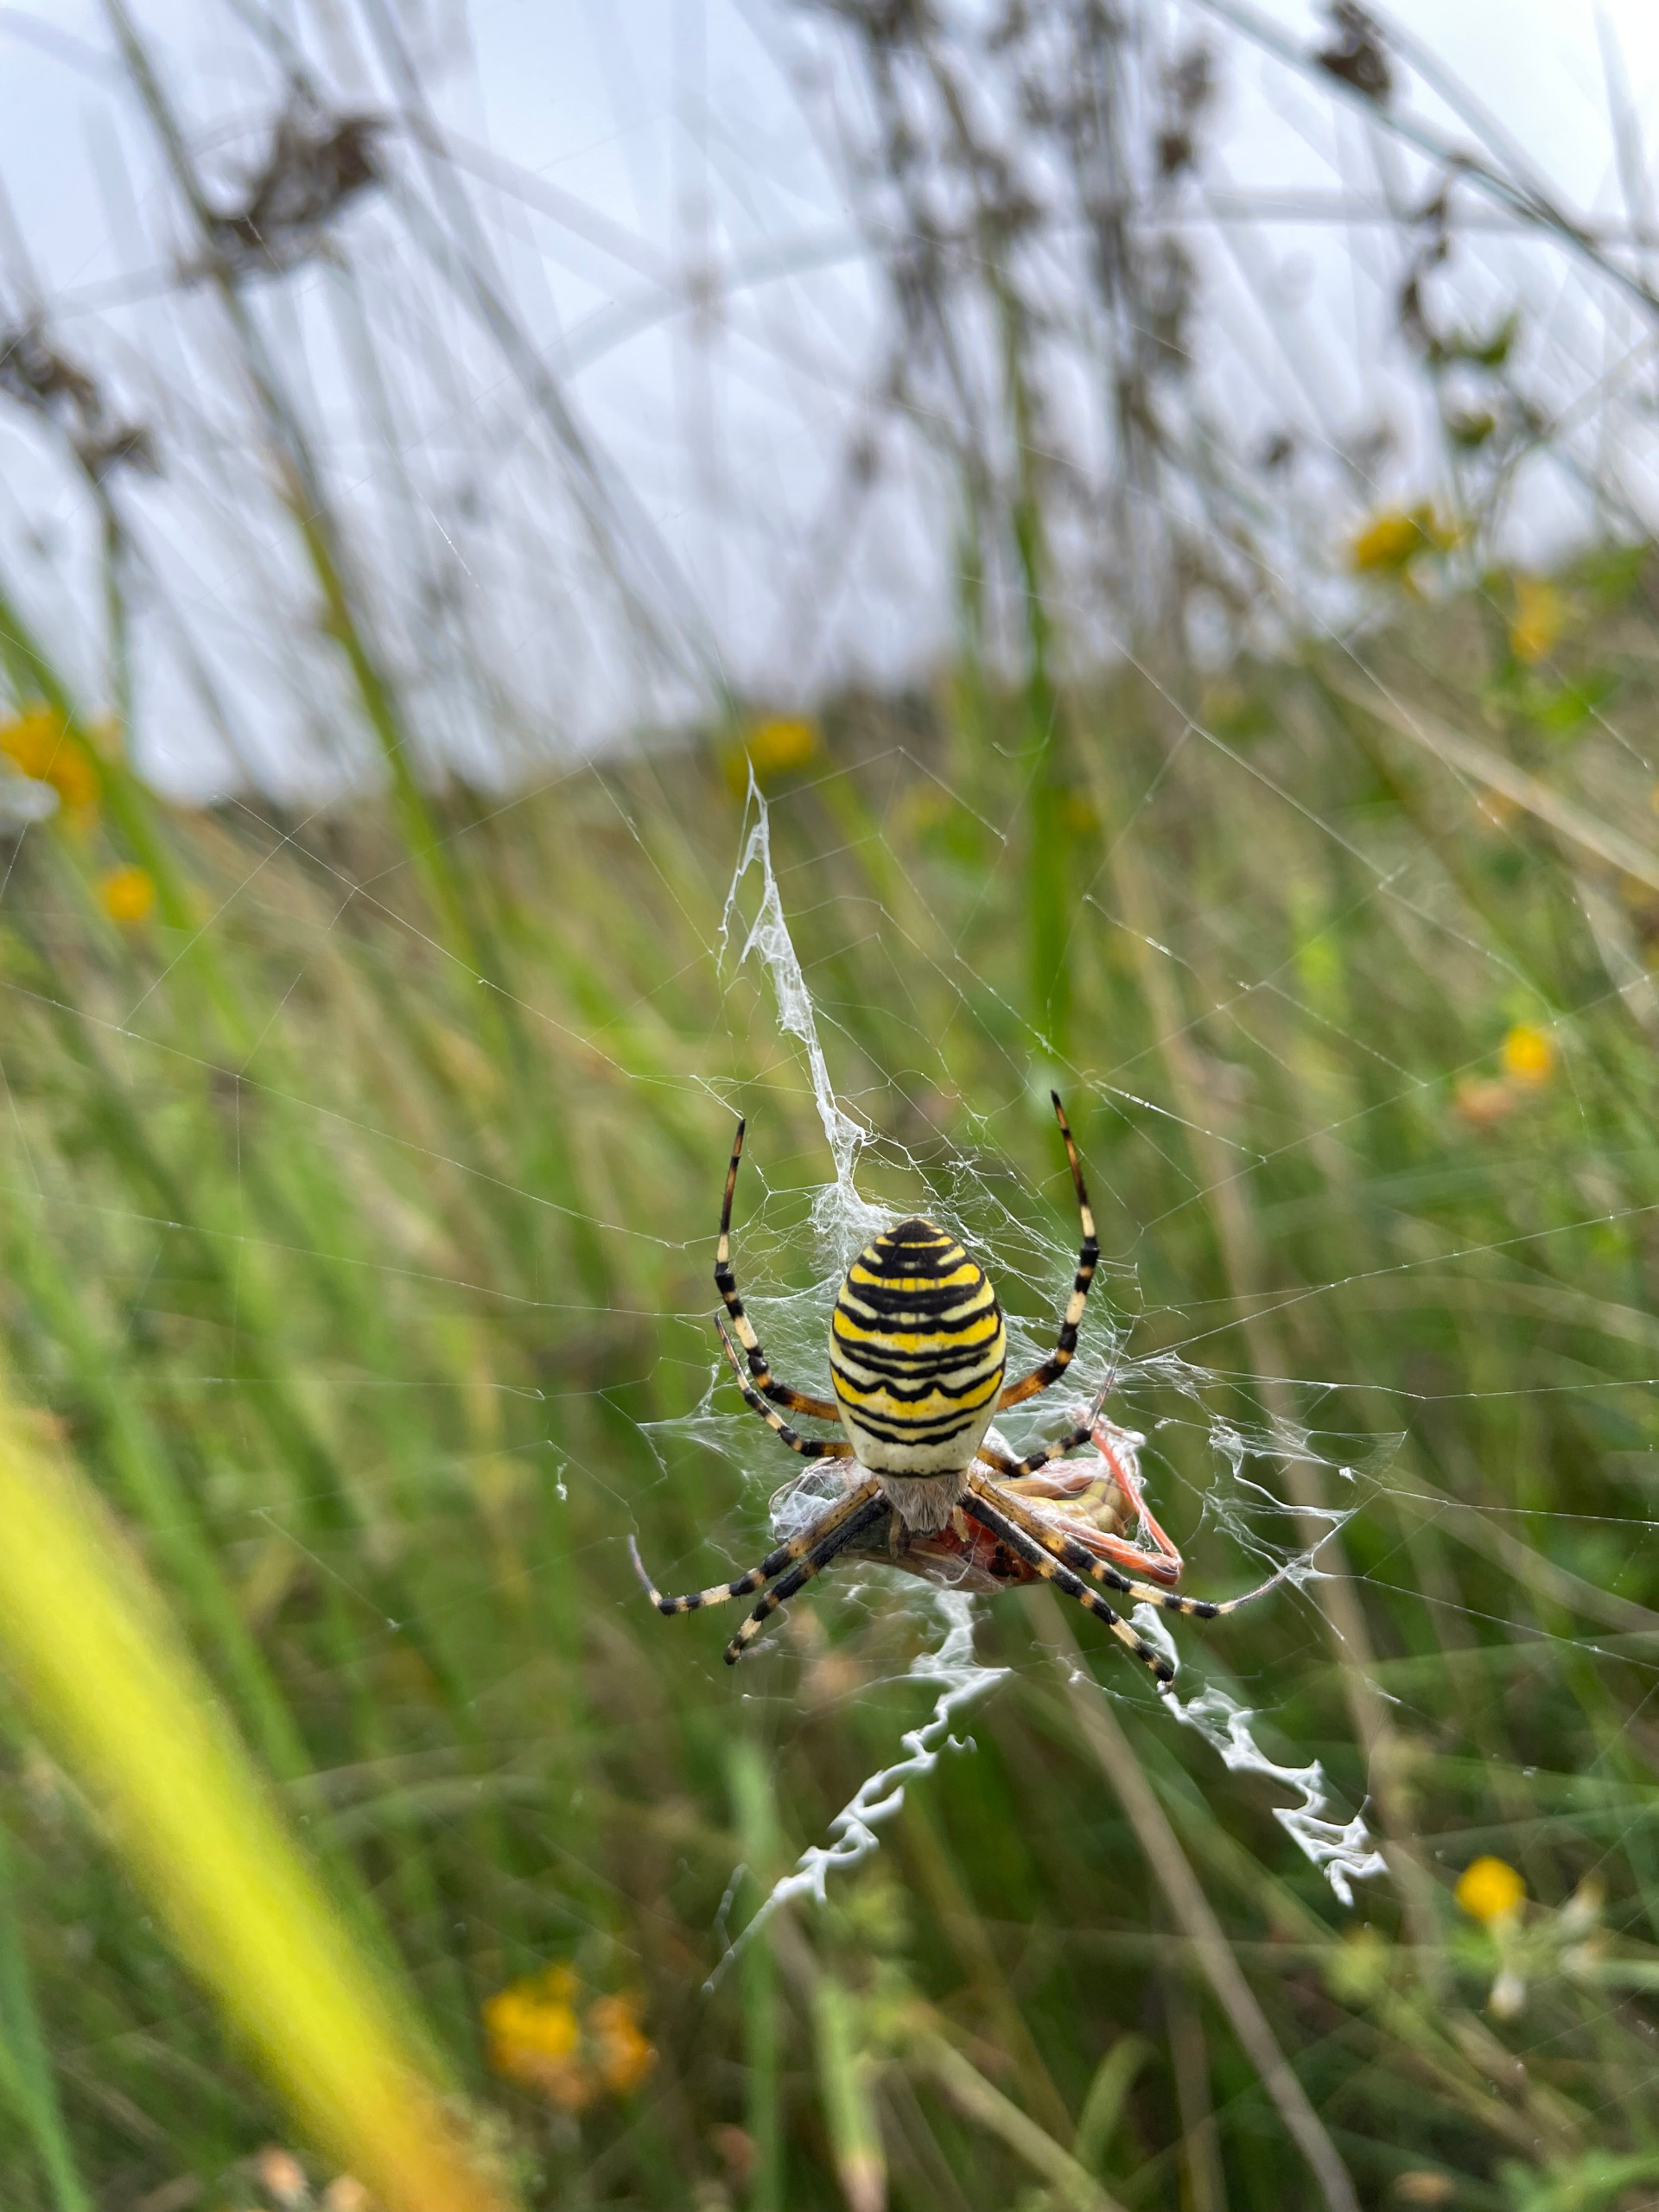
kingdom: Animalia
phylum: Arthropoda
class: Arachnida
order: Araneae
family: Araneidae
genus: Argiope
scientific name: Argiope bruennichi
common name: Hvepseedderkop
